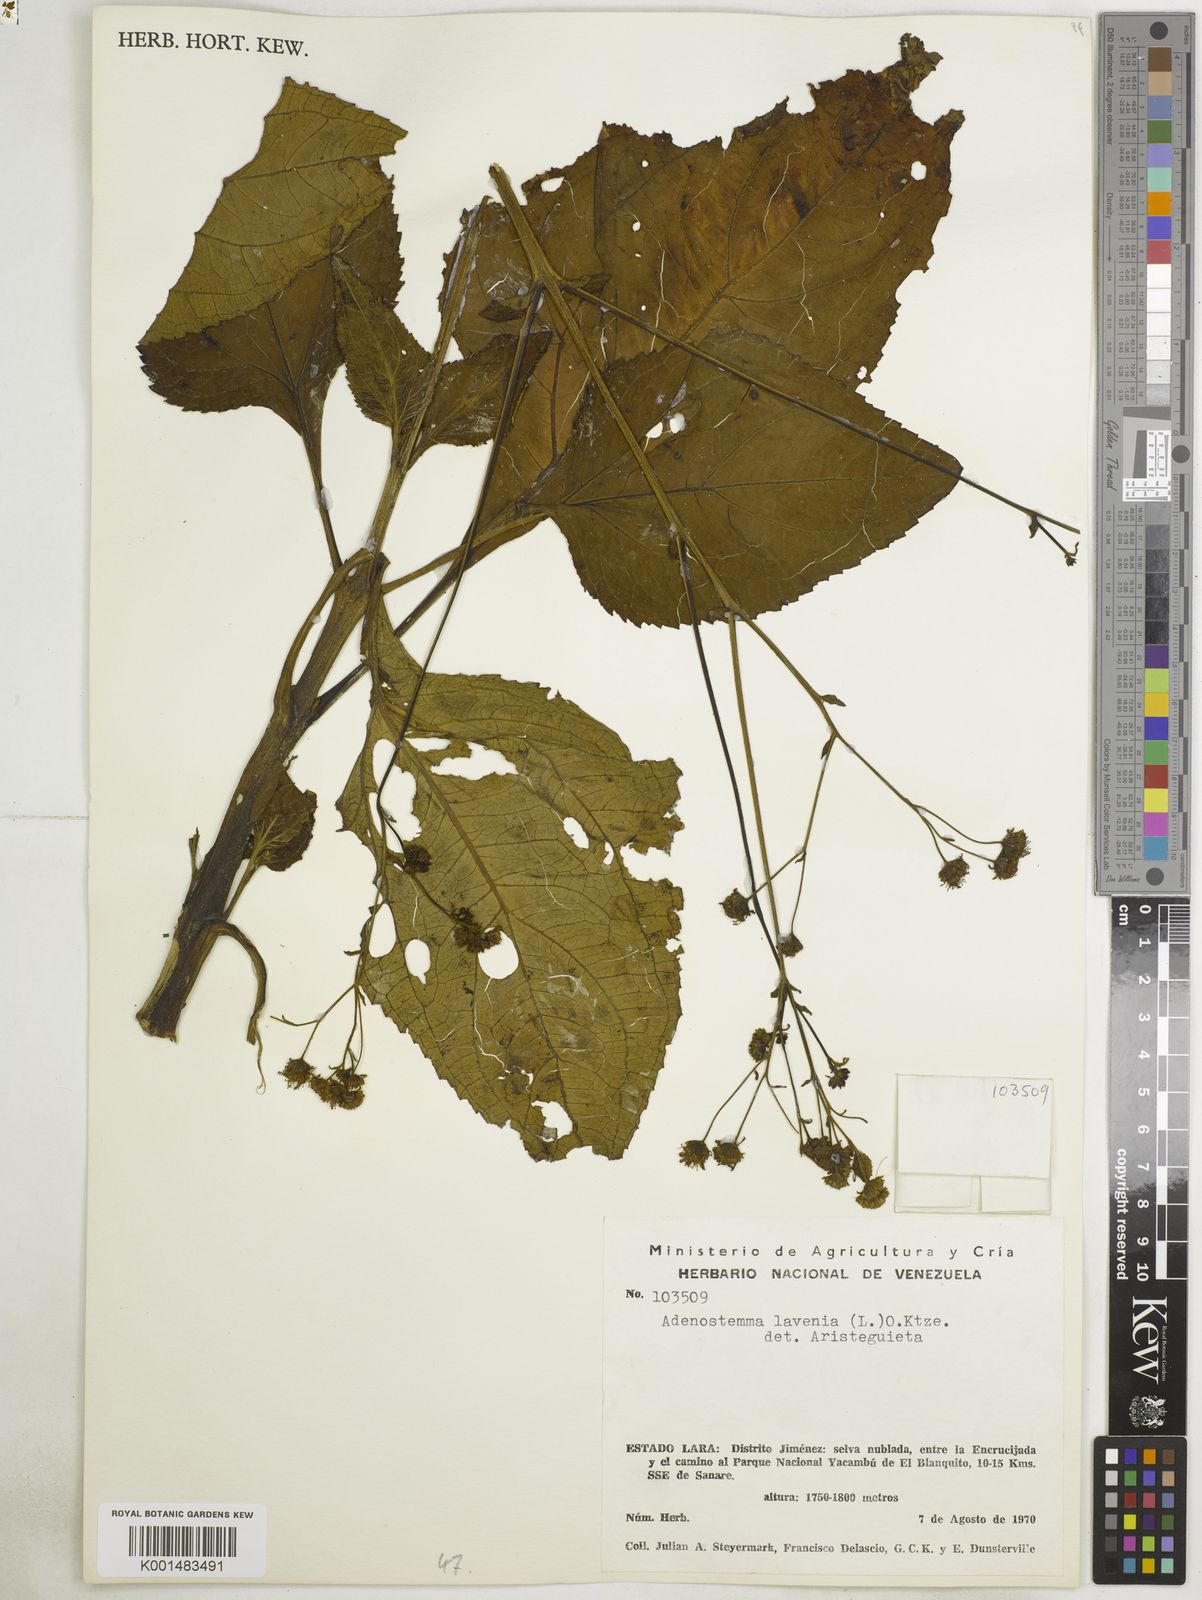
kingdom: Plantae
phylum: Tracheophyta
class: Magnoliopsida
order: Asterales
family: Asteraceae
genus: Adenostemma
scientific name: Adenostemma lavenia
